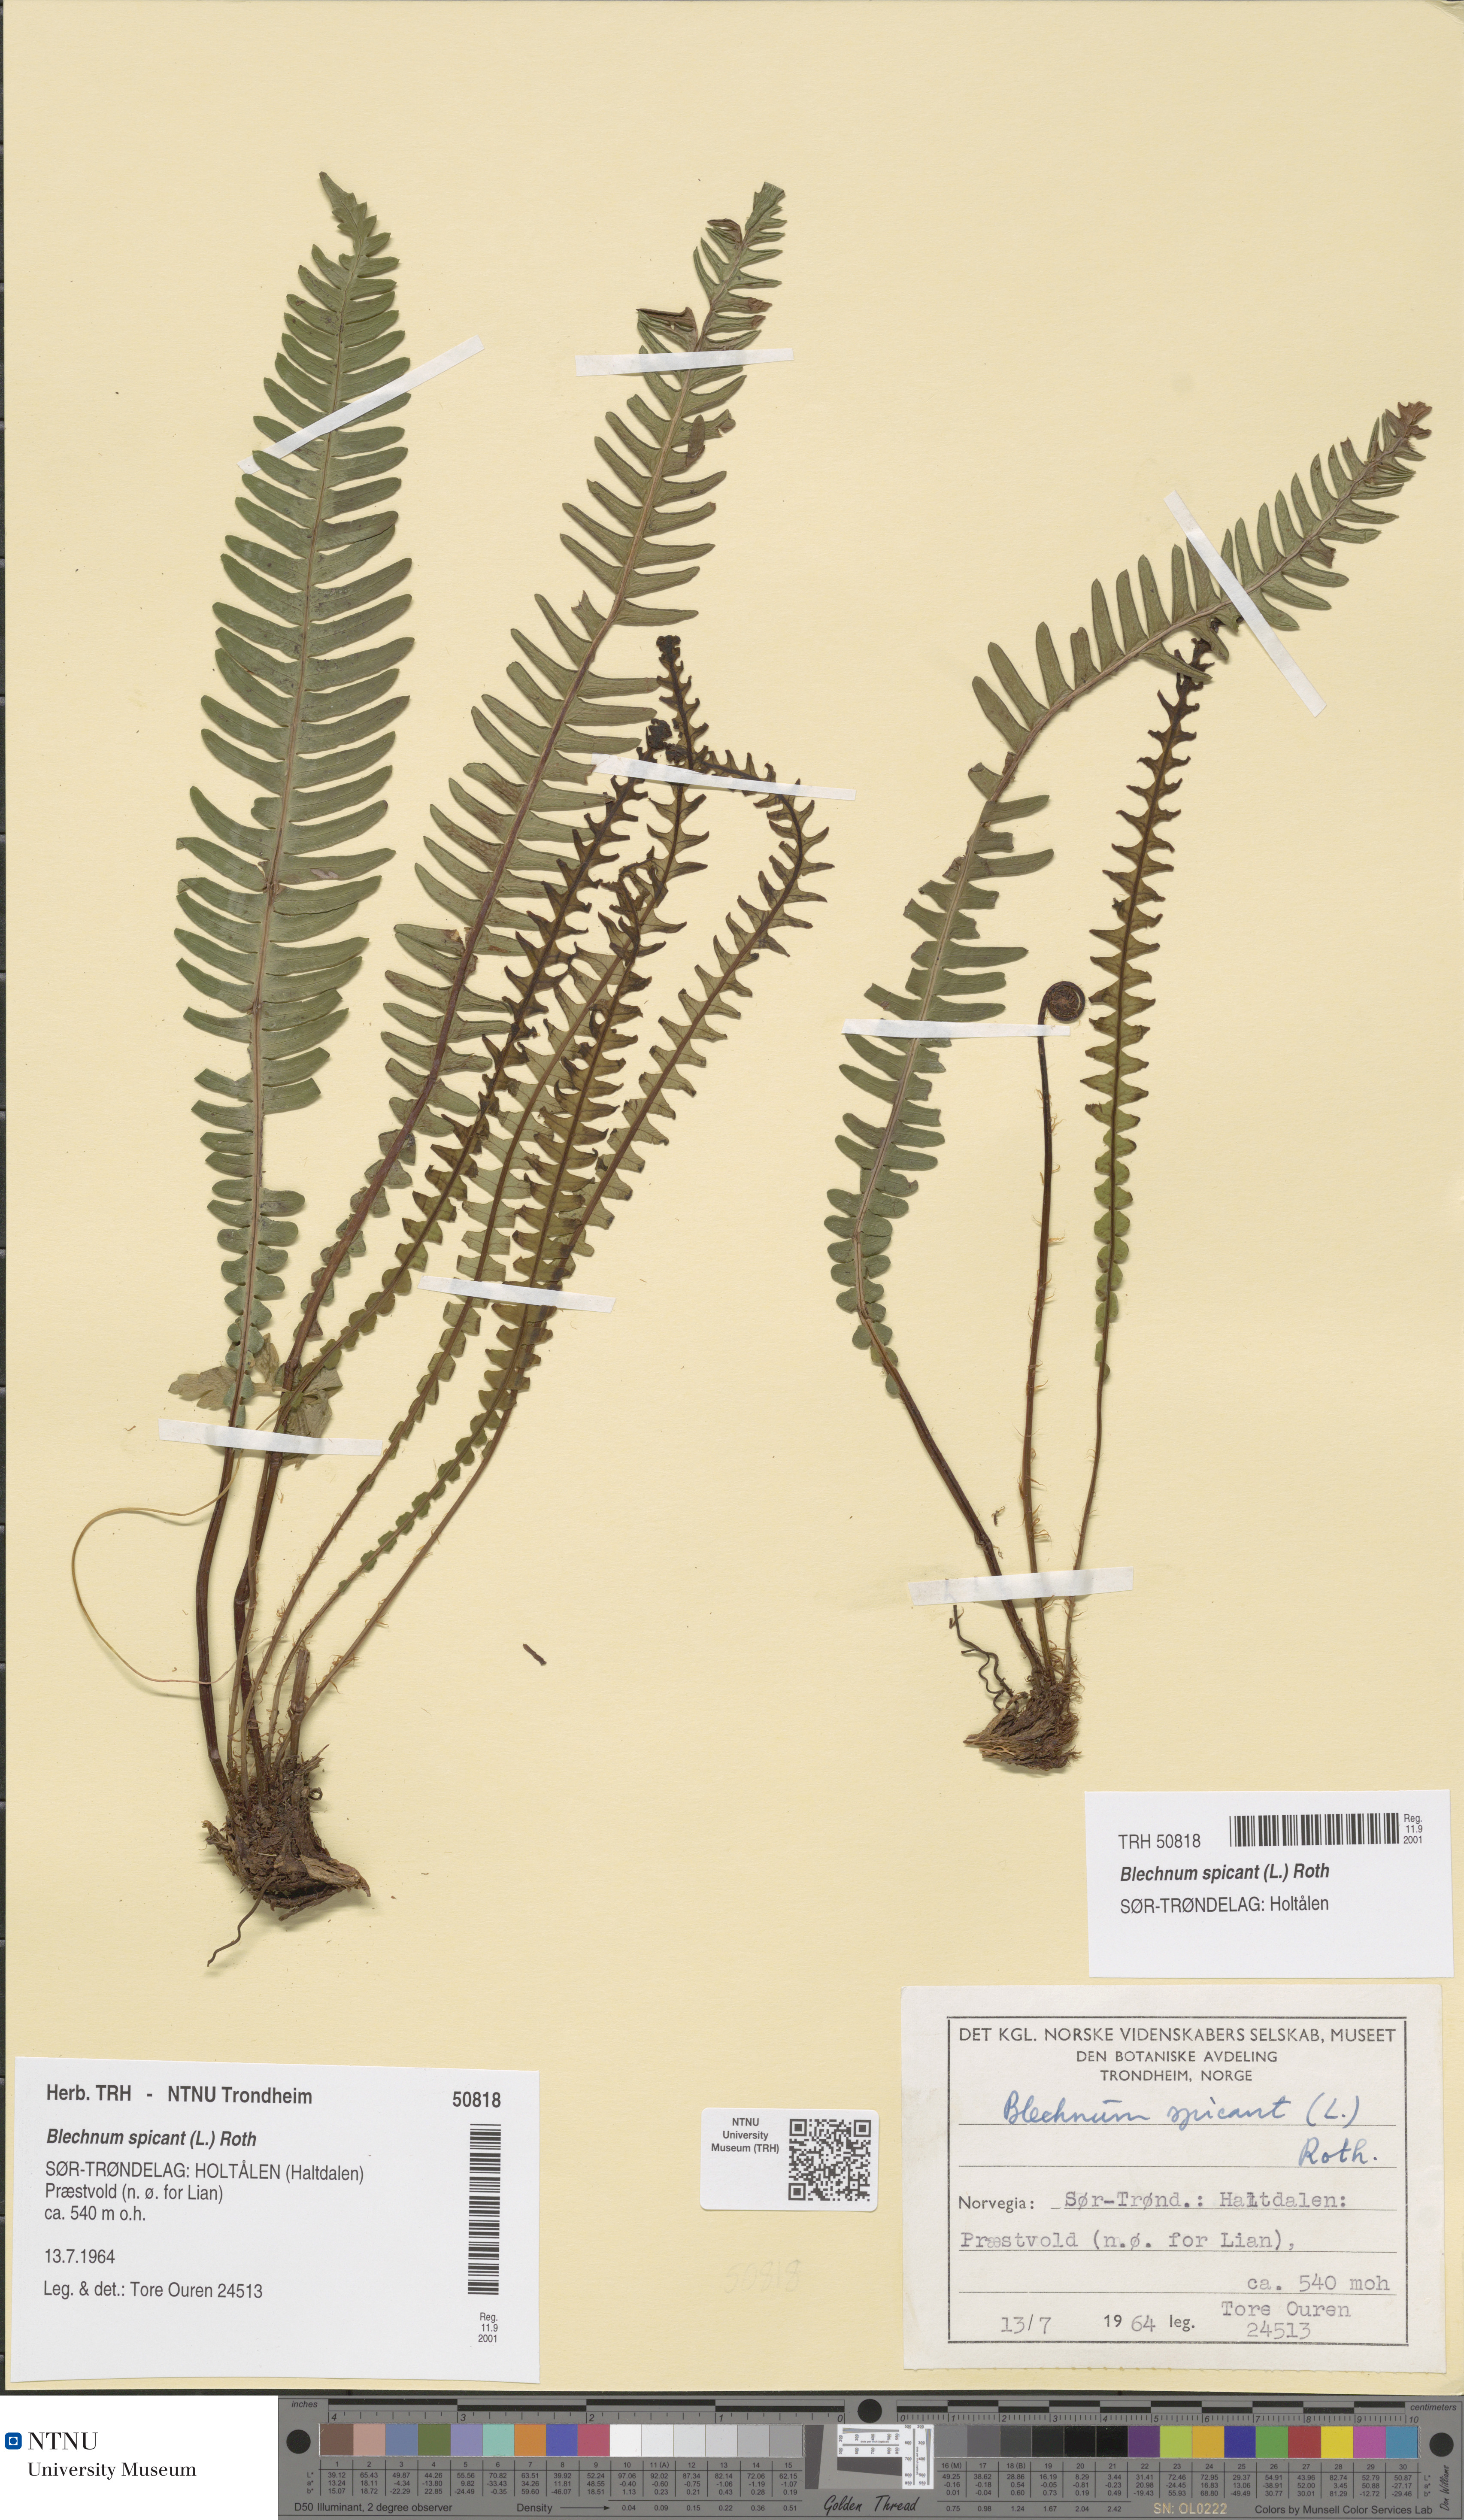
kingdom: Plantae
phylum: Tracheophyta
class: Polypodiopsida
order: Polypodiales
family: Blechnaceae
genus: Struthiopteris
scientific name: Struthiopteris spicant
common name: Deer fern
